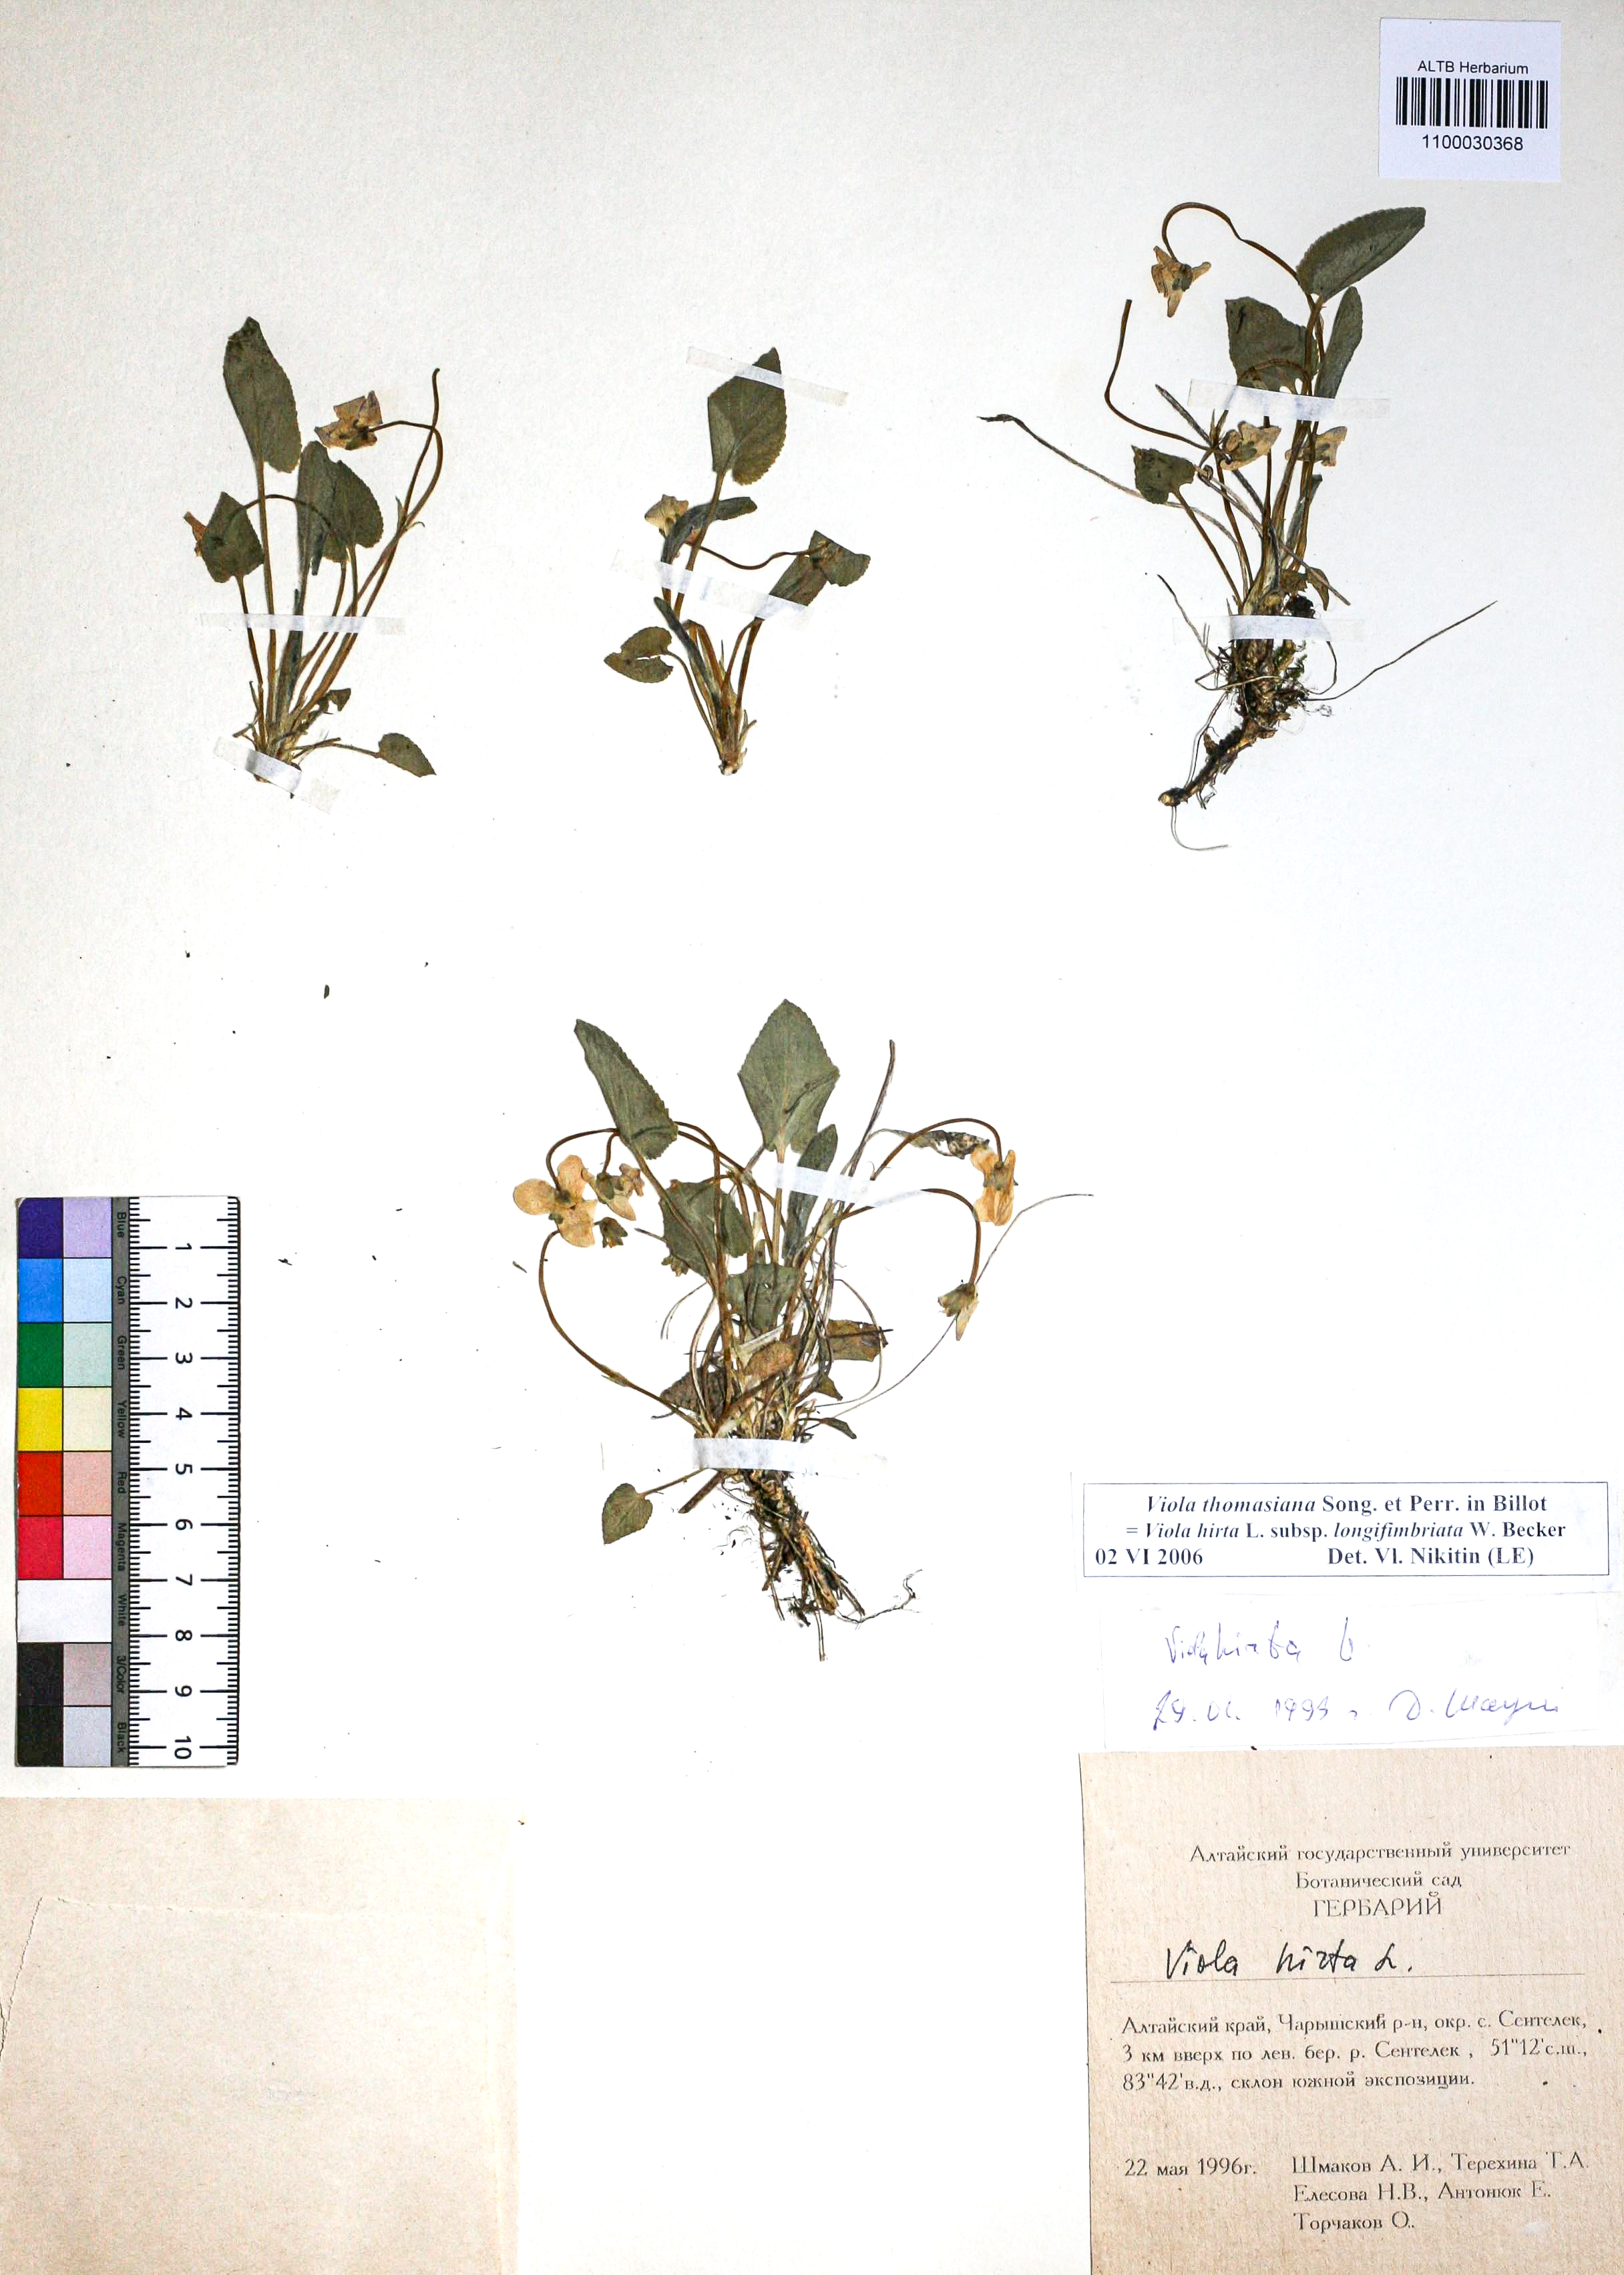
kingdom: Plantae
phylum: Tracheophyta
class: Magnoliopsida
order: Malpighiales
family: Violaceae
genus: Viola
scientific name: Viola thomasiana
